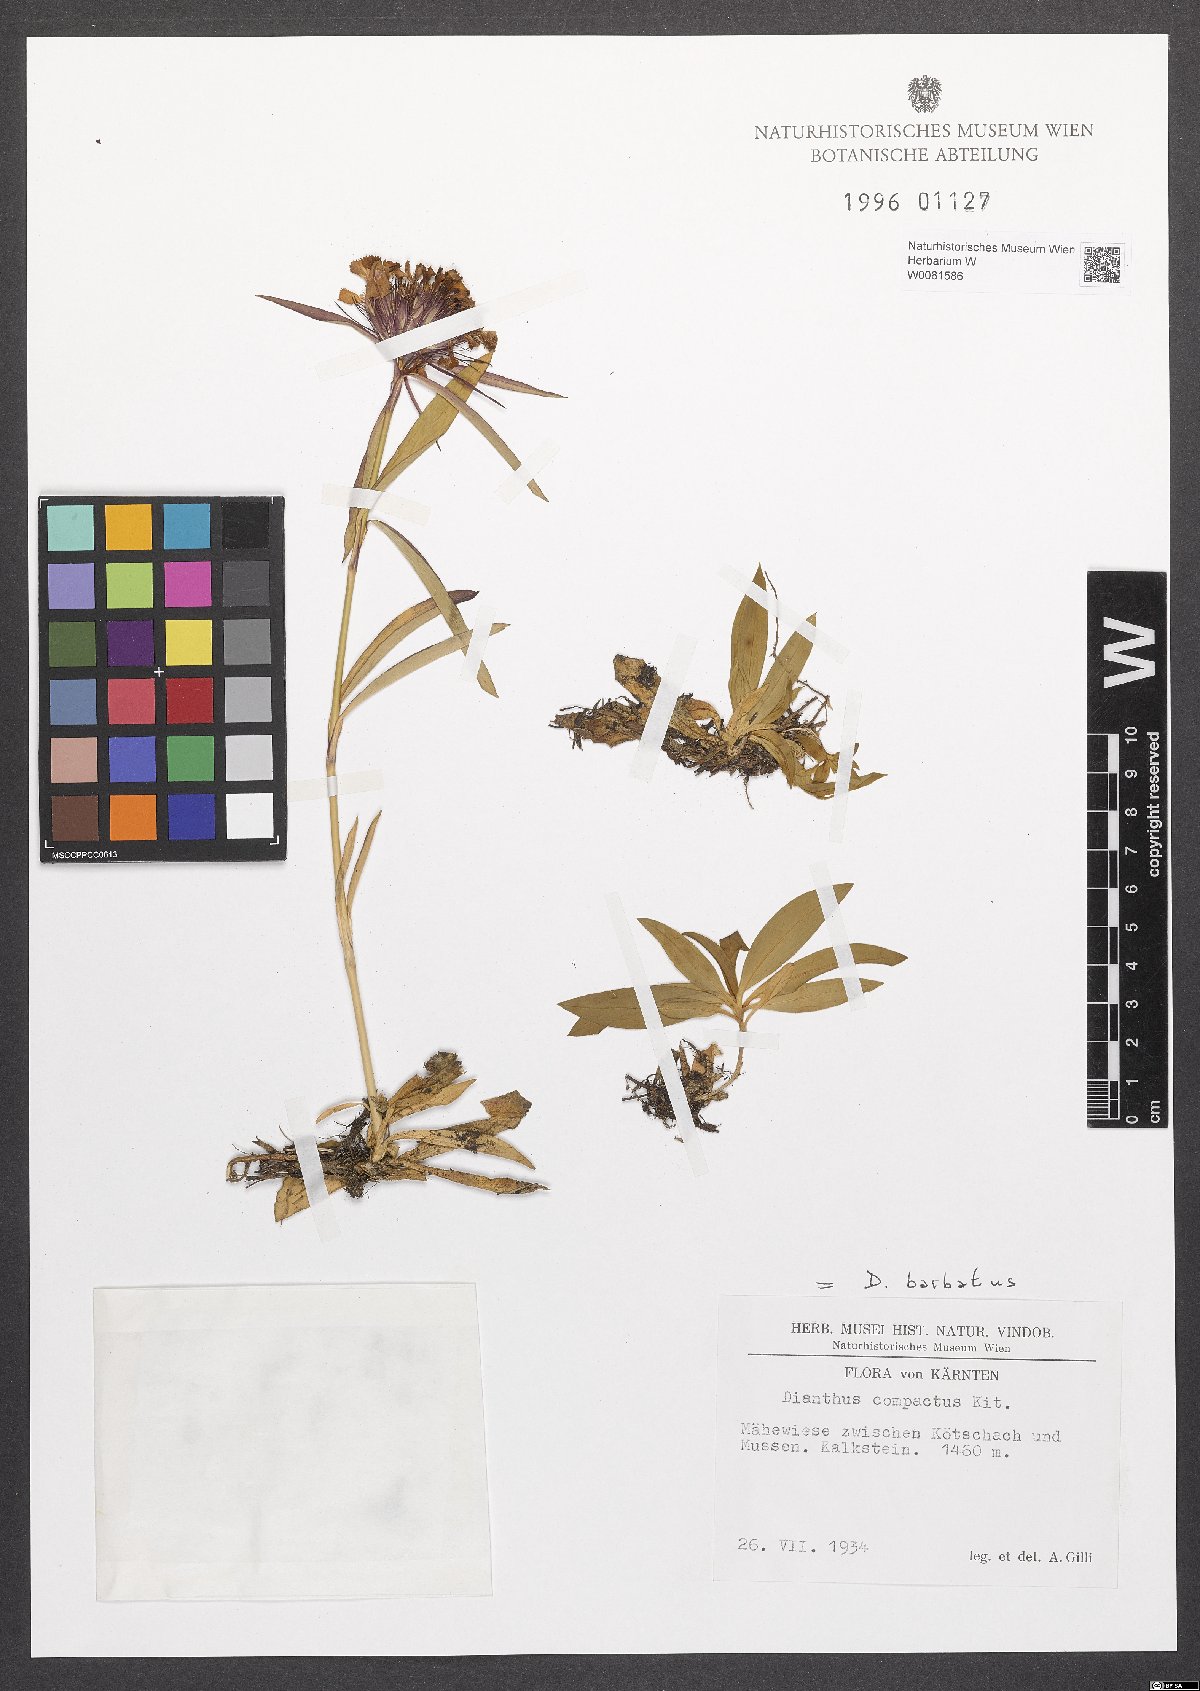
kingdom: Plantae
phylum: Tracheophyta
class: Magnoliopsida
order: Caryophyllales
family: Caryophyllaceae
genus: Dianthus
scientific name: Dianthus barbatus
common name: Sweet-william
